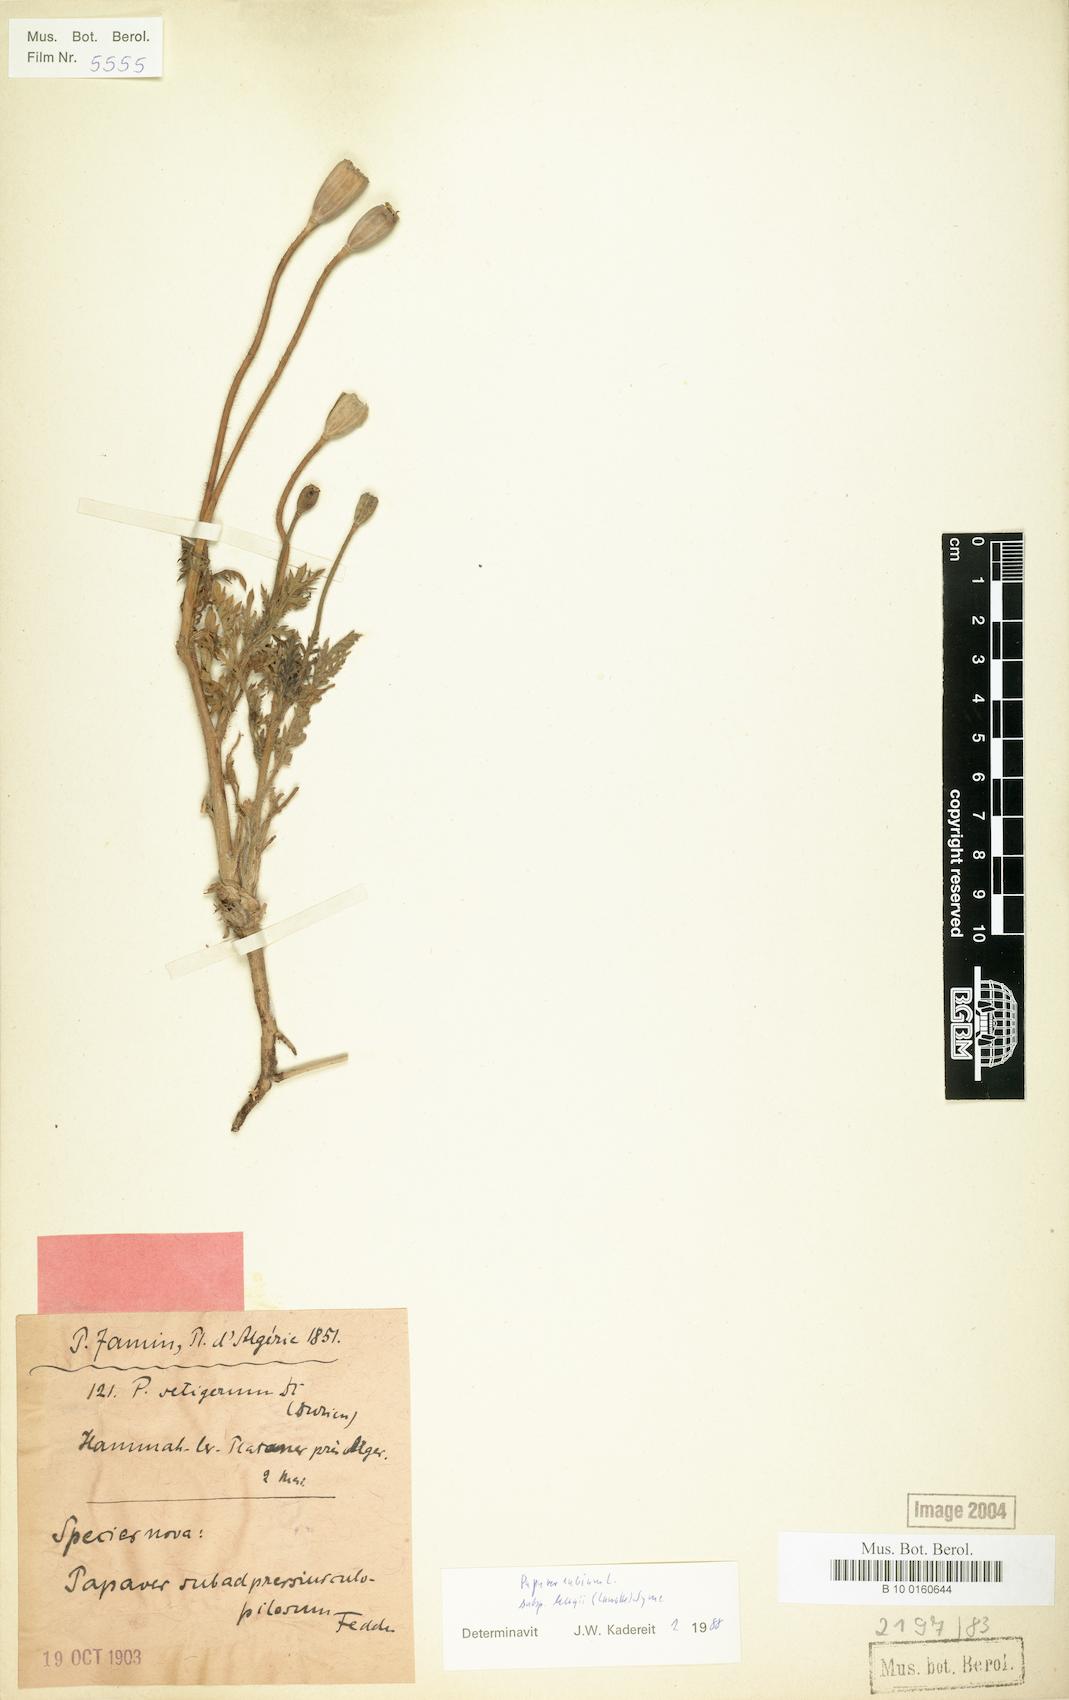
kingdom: Plantae
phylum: Tracheophyta
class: Magnoliopsida
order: Ranunculales
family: Papaveraceae
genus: Papaver
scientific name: Papaver dubium
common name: Long-headed poppy
